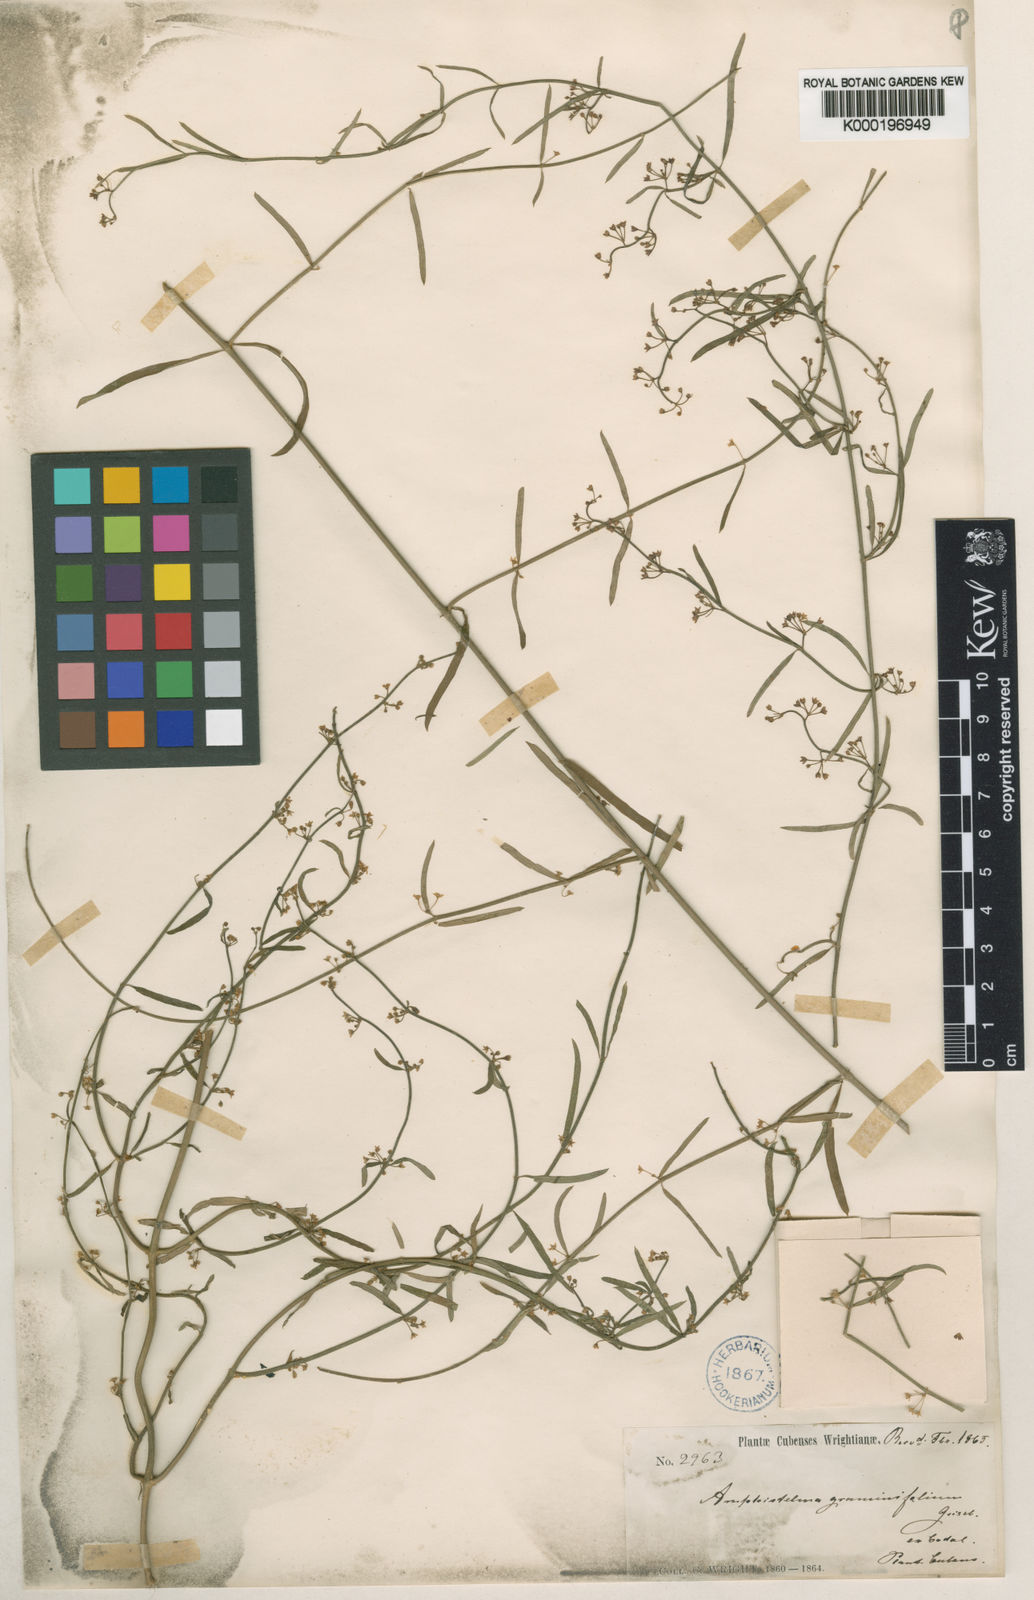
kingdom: Plantae
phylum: Tracheophyta
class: Magnoliopsida
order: Gentianales
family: Apocynaceae
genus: Orthosia
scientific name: Orthosia scoparia
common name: Leafless swallow-wort
